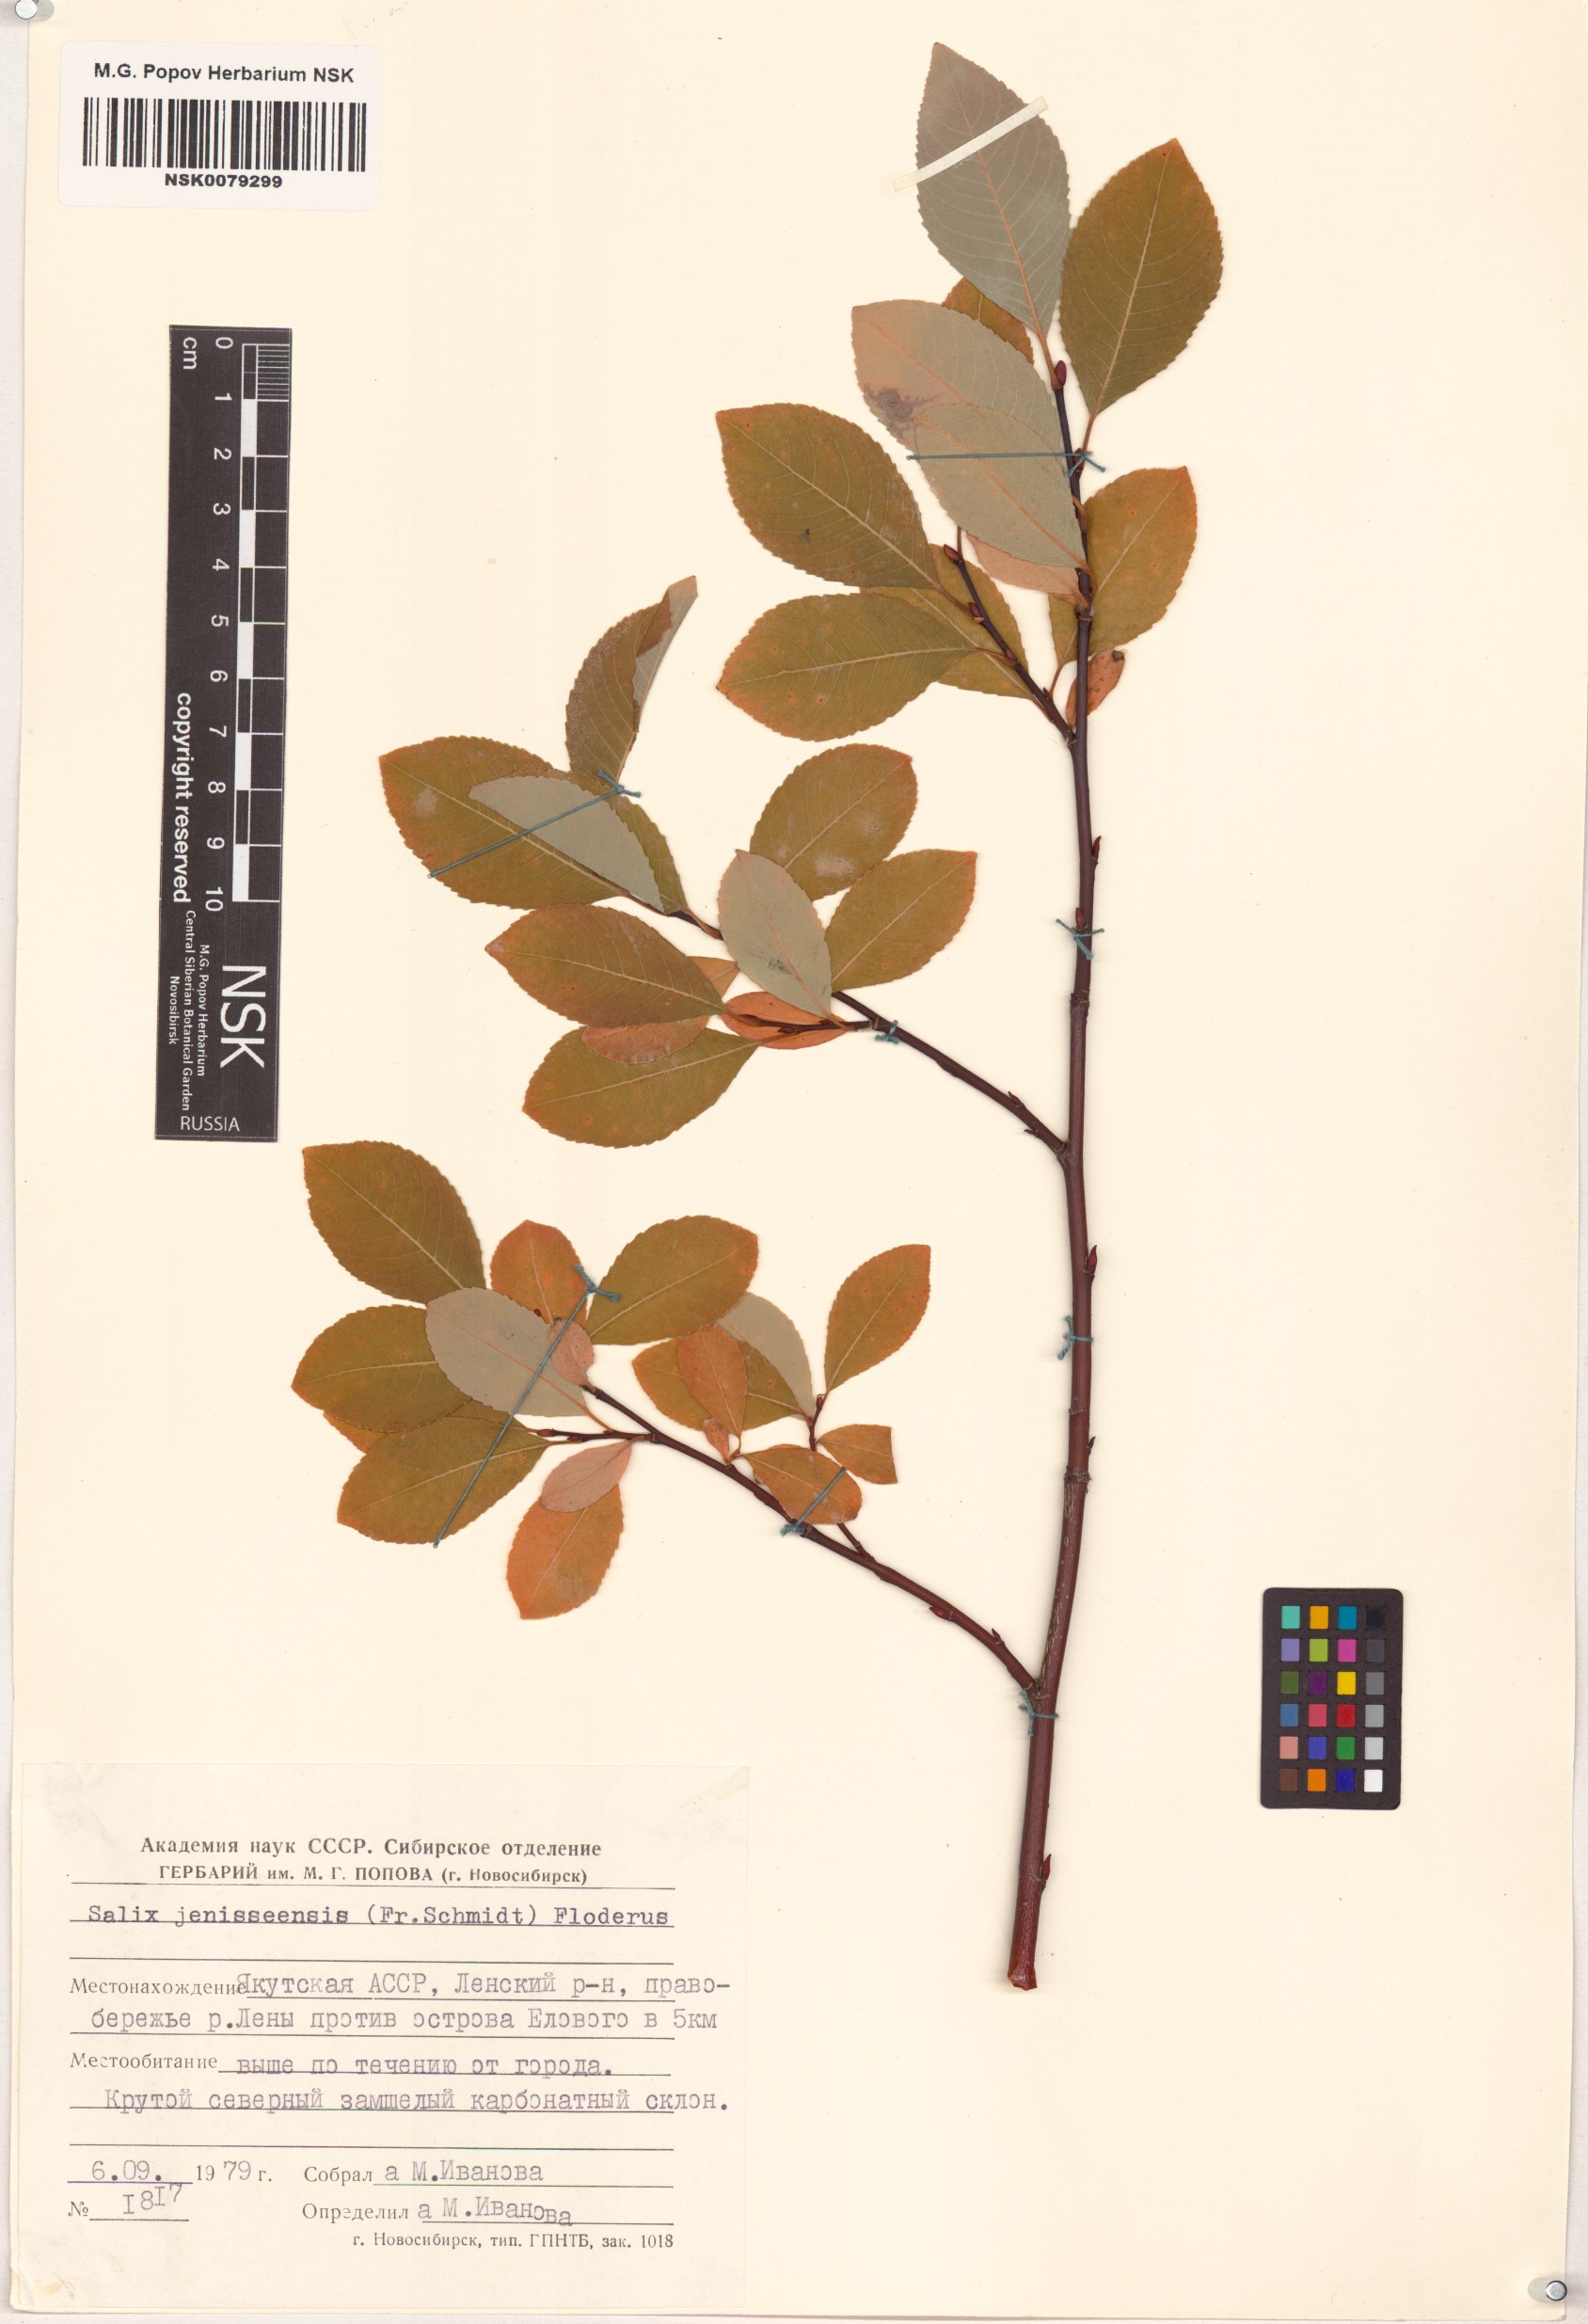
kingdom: Plantae
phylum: Tracheophyta
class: Magnoliopsida
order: Malpighiales
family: Salicaceae
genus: Salix
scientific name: Salix jenisseensis
